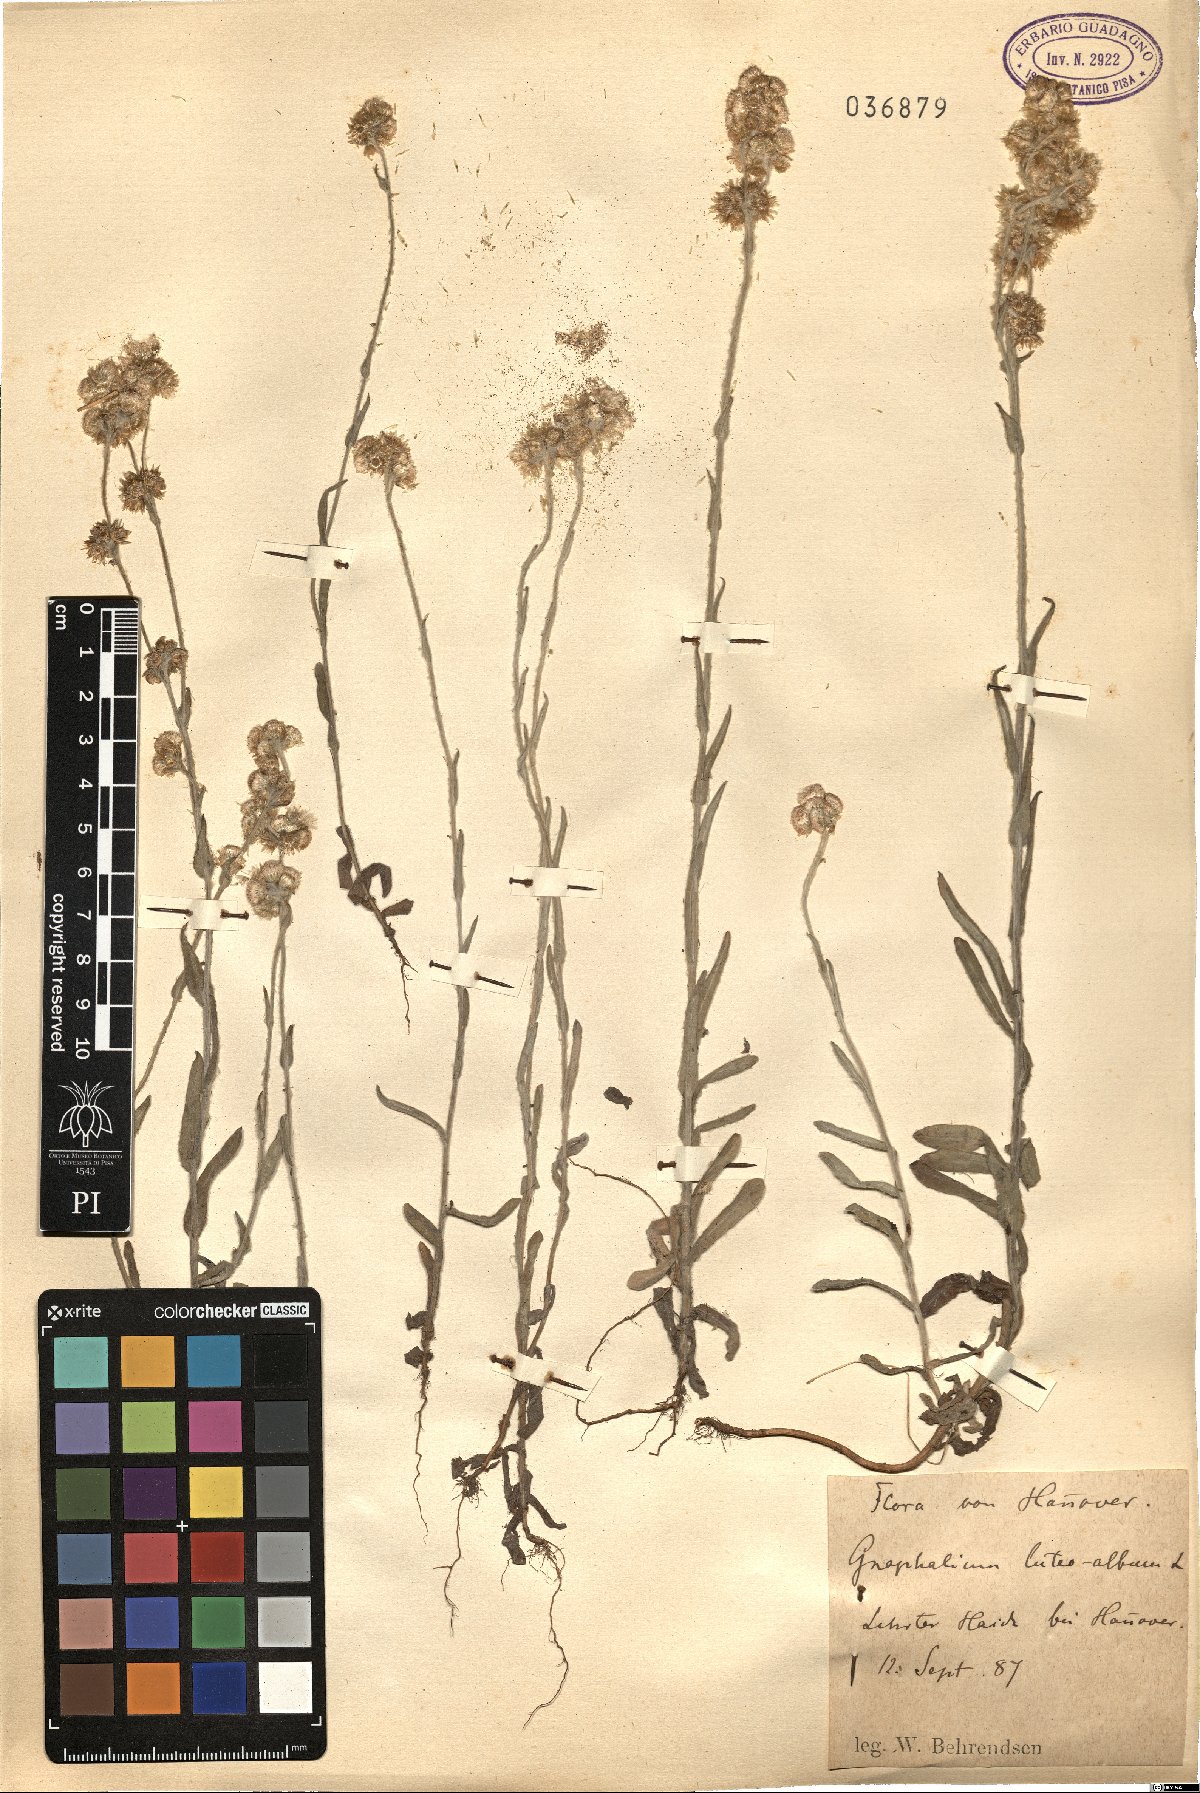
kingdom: Plantae
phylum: Tracheophyta
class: Magnoliopsida
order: Asterales
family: Asteraceae
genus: Helichrysum
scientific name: Helichrysum luteoalbum
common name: Daisy
